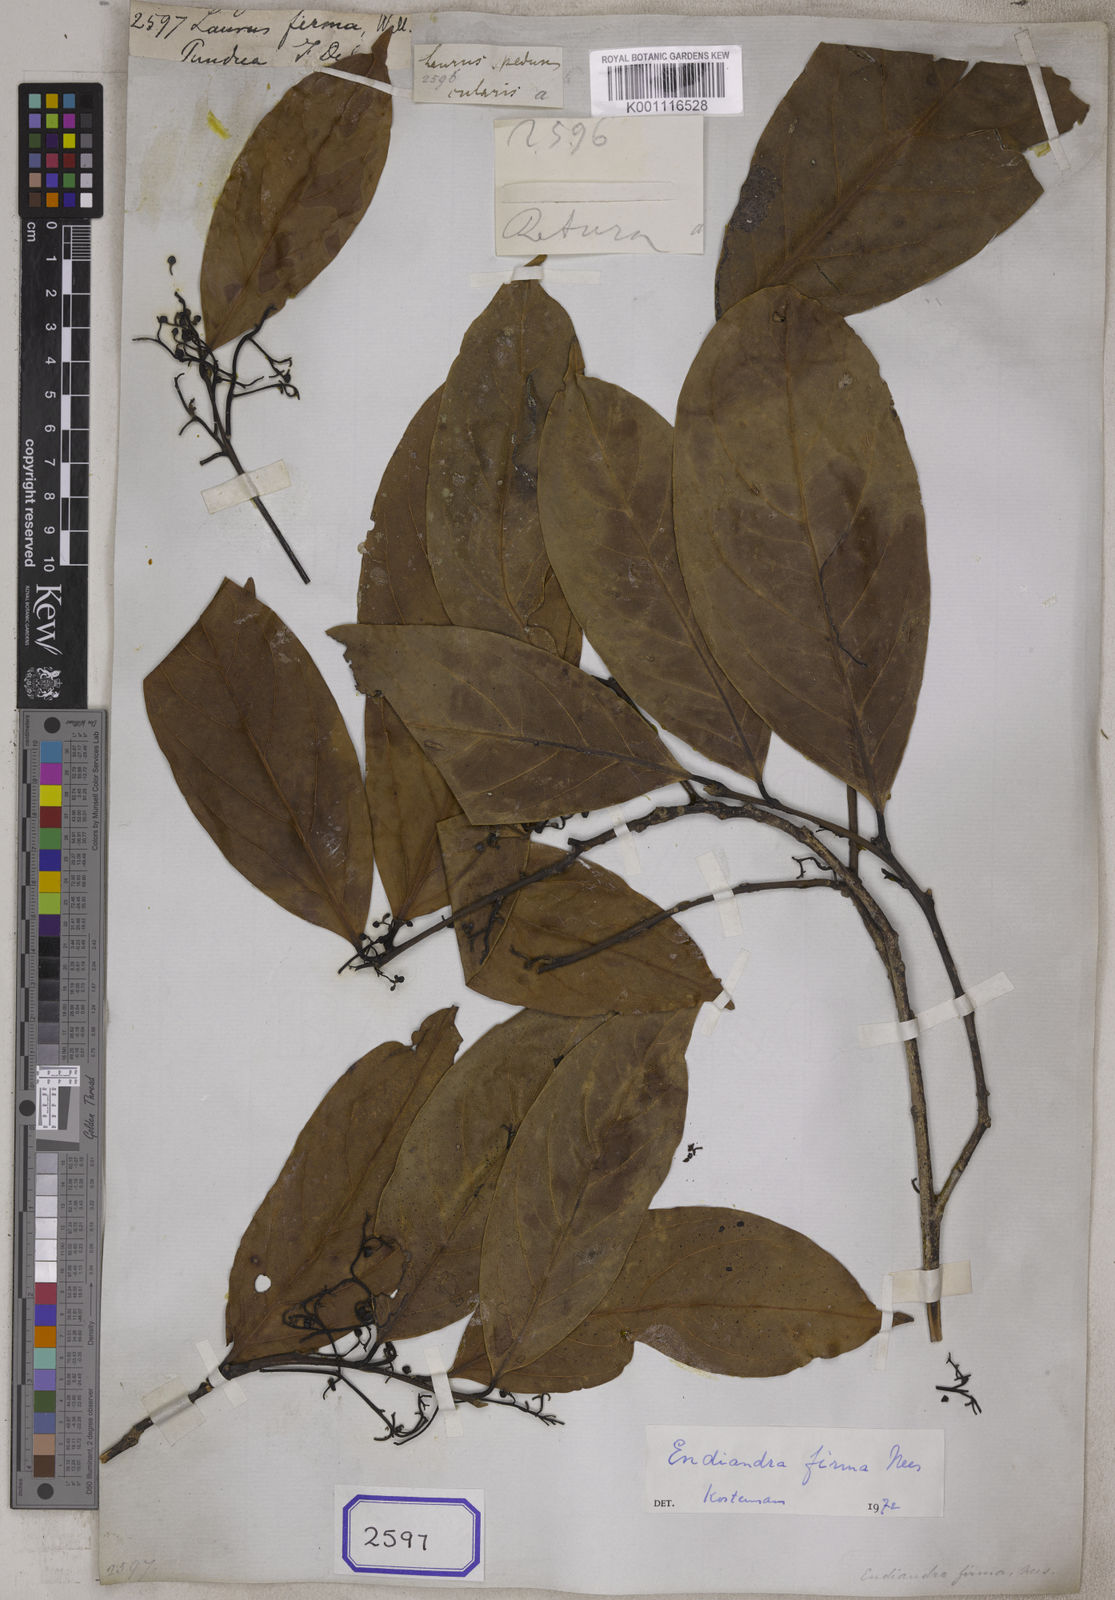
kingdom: Plantae
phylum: Tracheophyta
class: Magnoliopsida
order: Laurales
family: Lauraceae
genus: Endiandra
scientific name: Endiandra firma
